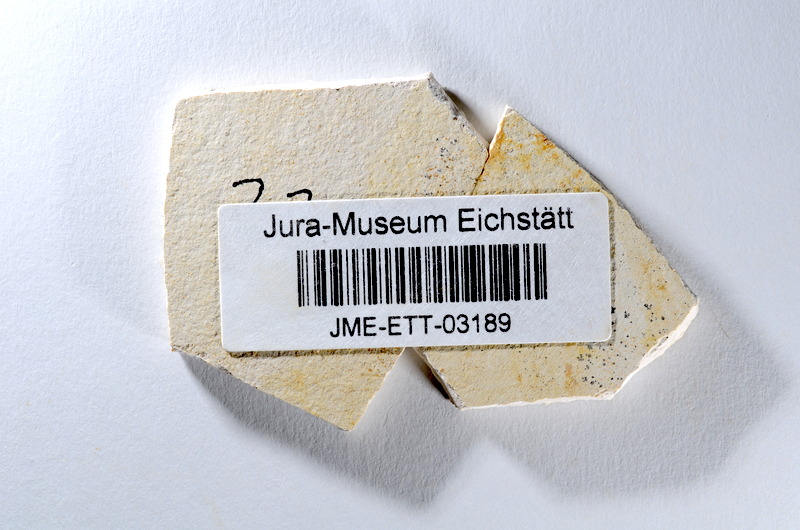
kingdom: Animalia
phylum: Chordata
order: Salmoniformes
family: Orthogonikleithridae
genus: Orthogonikleithrus
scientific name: Orthogonikleithrus hoelli
